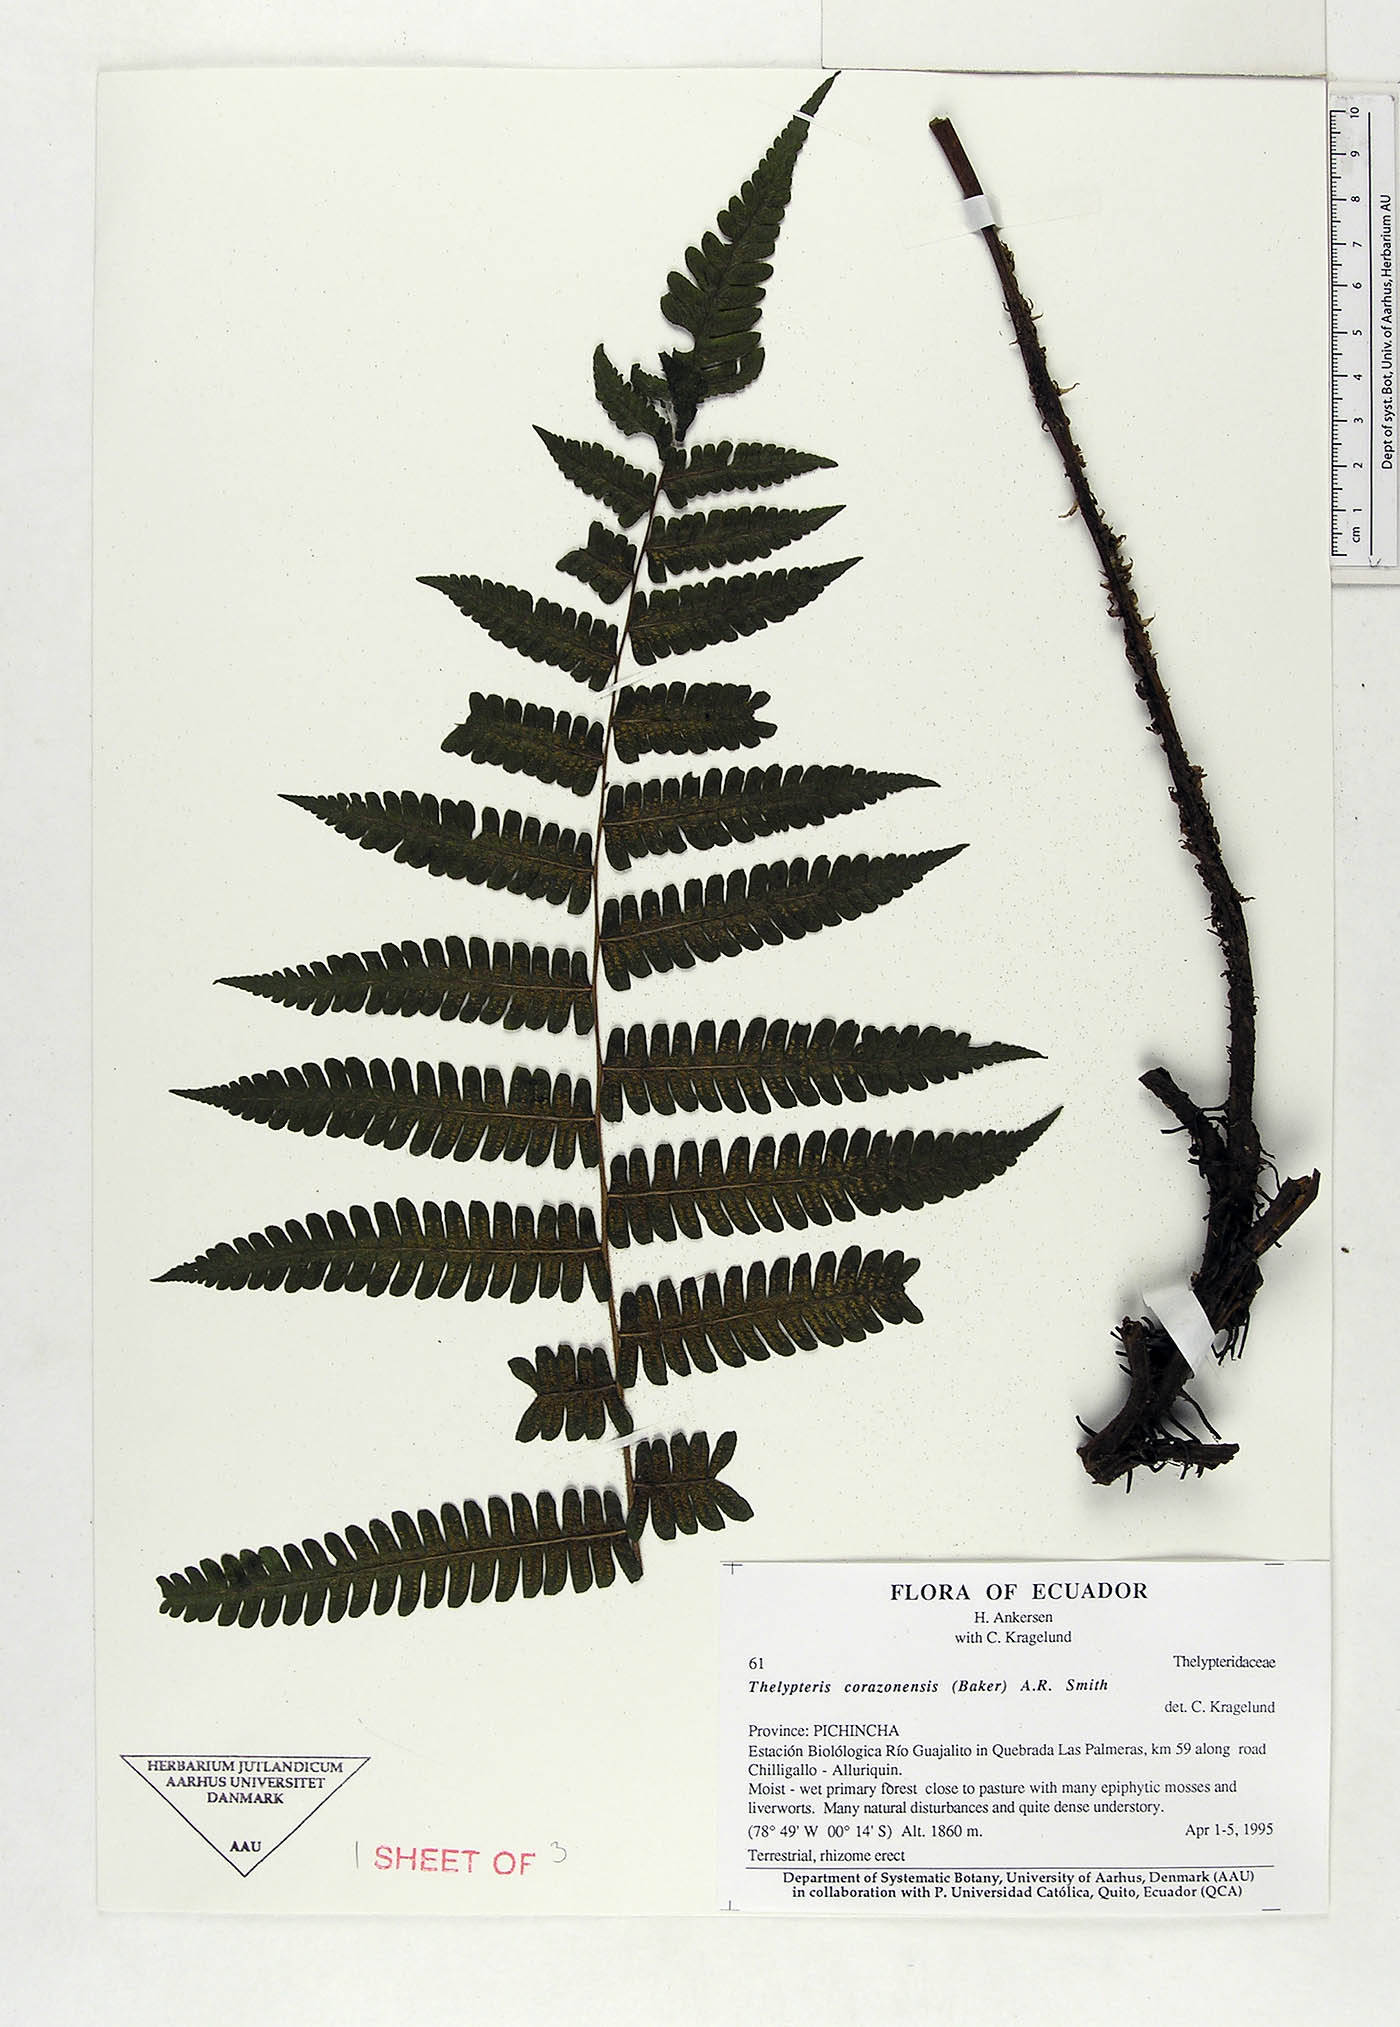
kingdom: Plantae
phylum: Tracheophyta
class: Polypodiopsida
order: Polypodiales
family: Thelypteridaceae
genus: Amauropelta
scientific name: Amauropelta corazonensis
